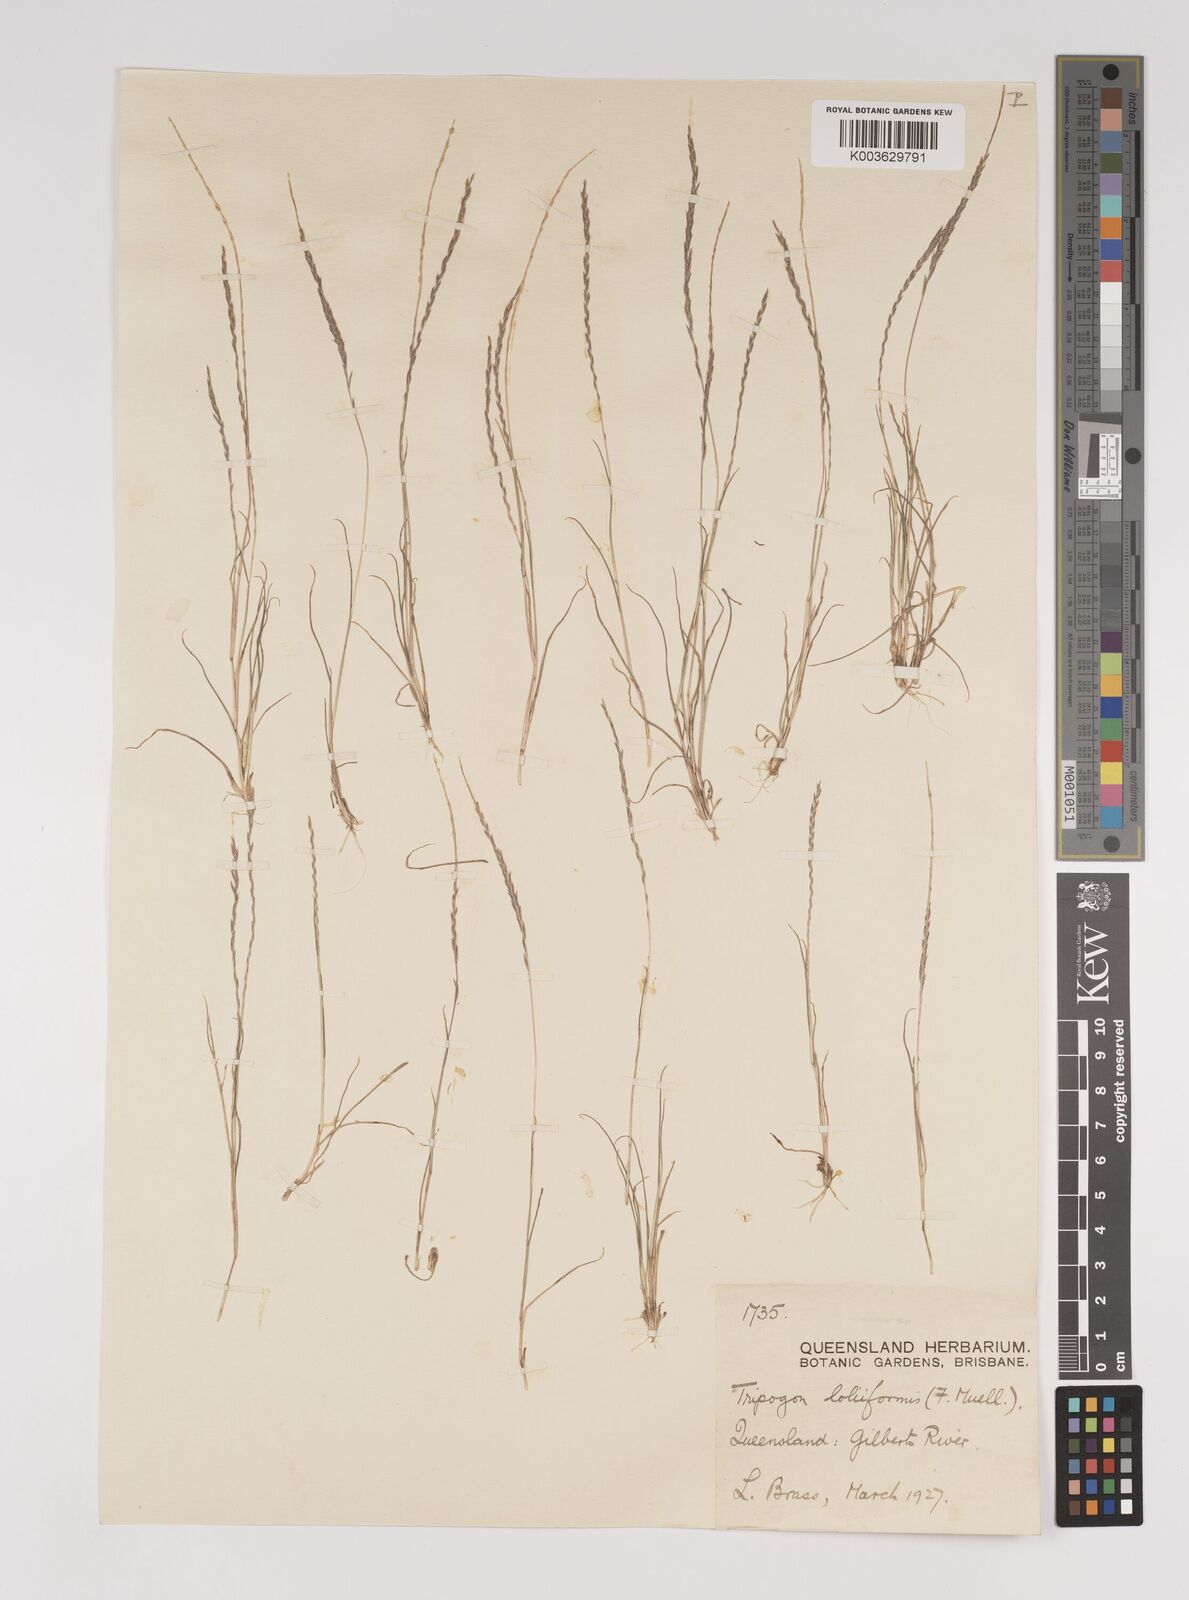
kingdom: Plantae
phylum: Tracheophyta
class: Liliopsida
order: Poales
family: Poaceae
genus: Tripogonella
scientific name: Tripogonella loliiformis
